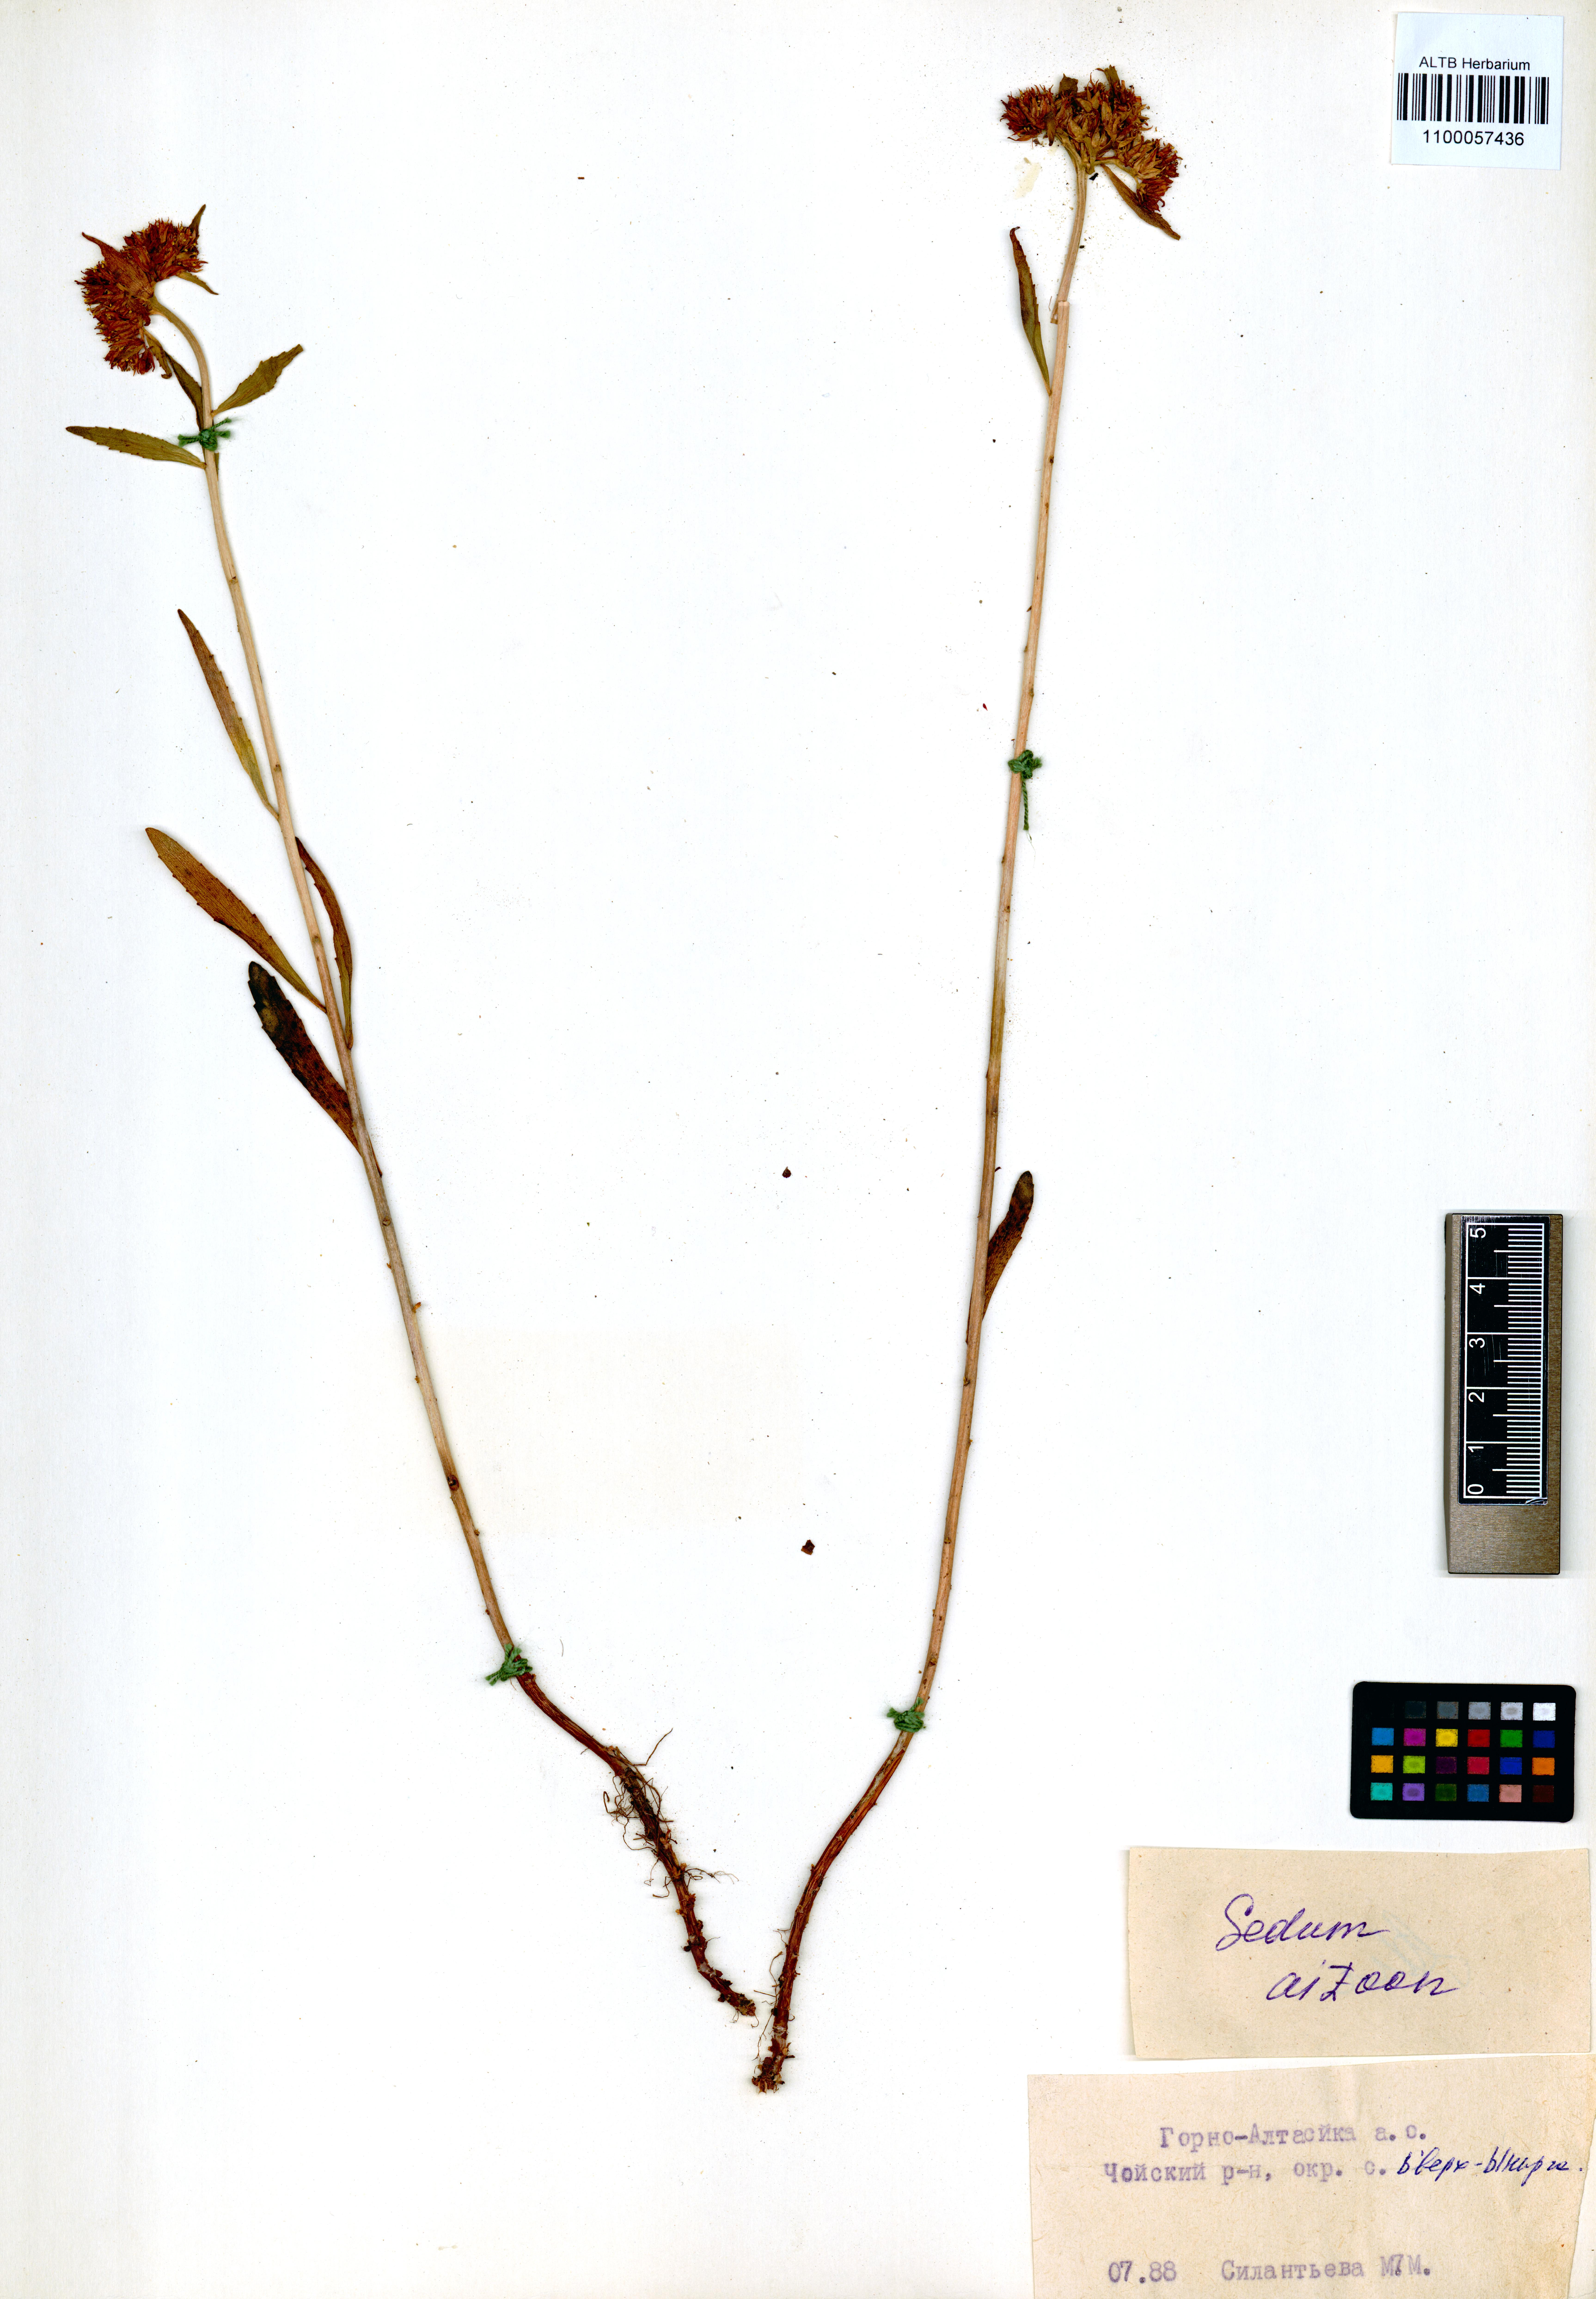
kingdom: Plantae
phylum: Tracheophyta
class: Magnoliopsida
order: Saxifragales
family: Crassulaceae
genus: Phedimus
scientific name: Phedimus aizoon
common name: Orpin aizoon
